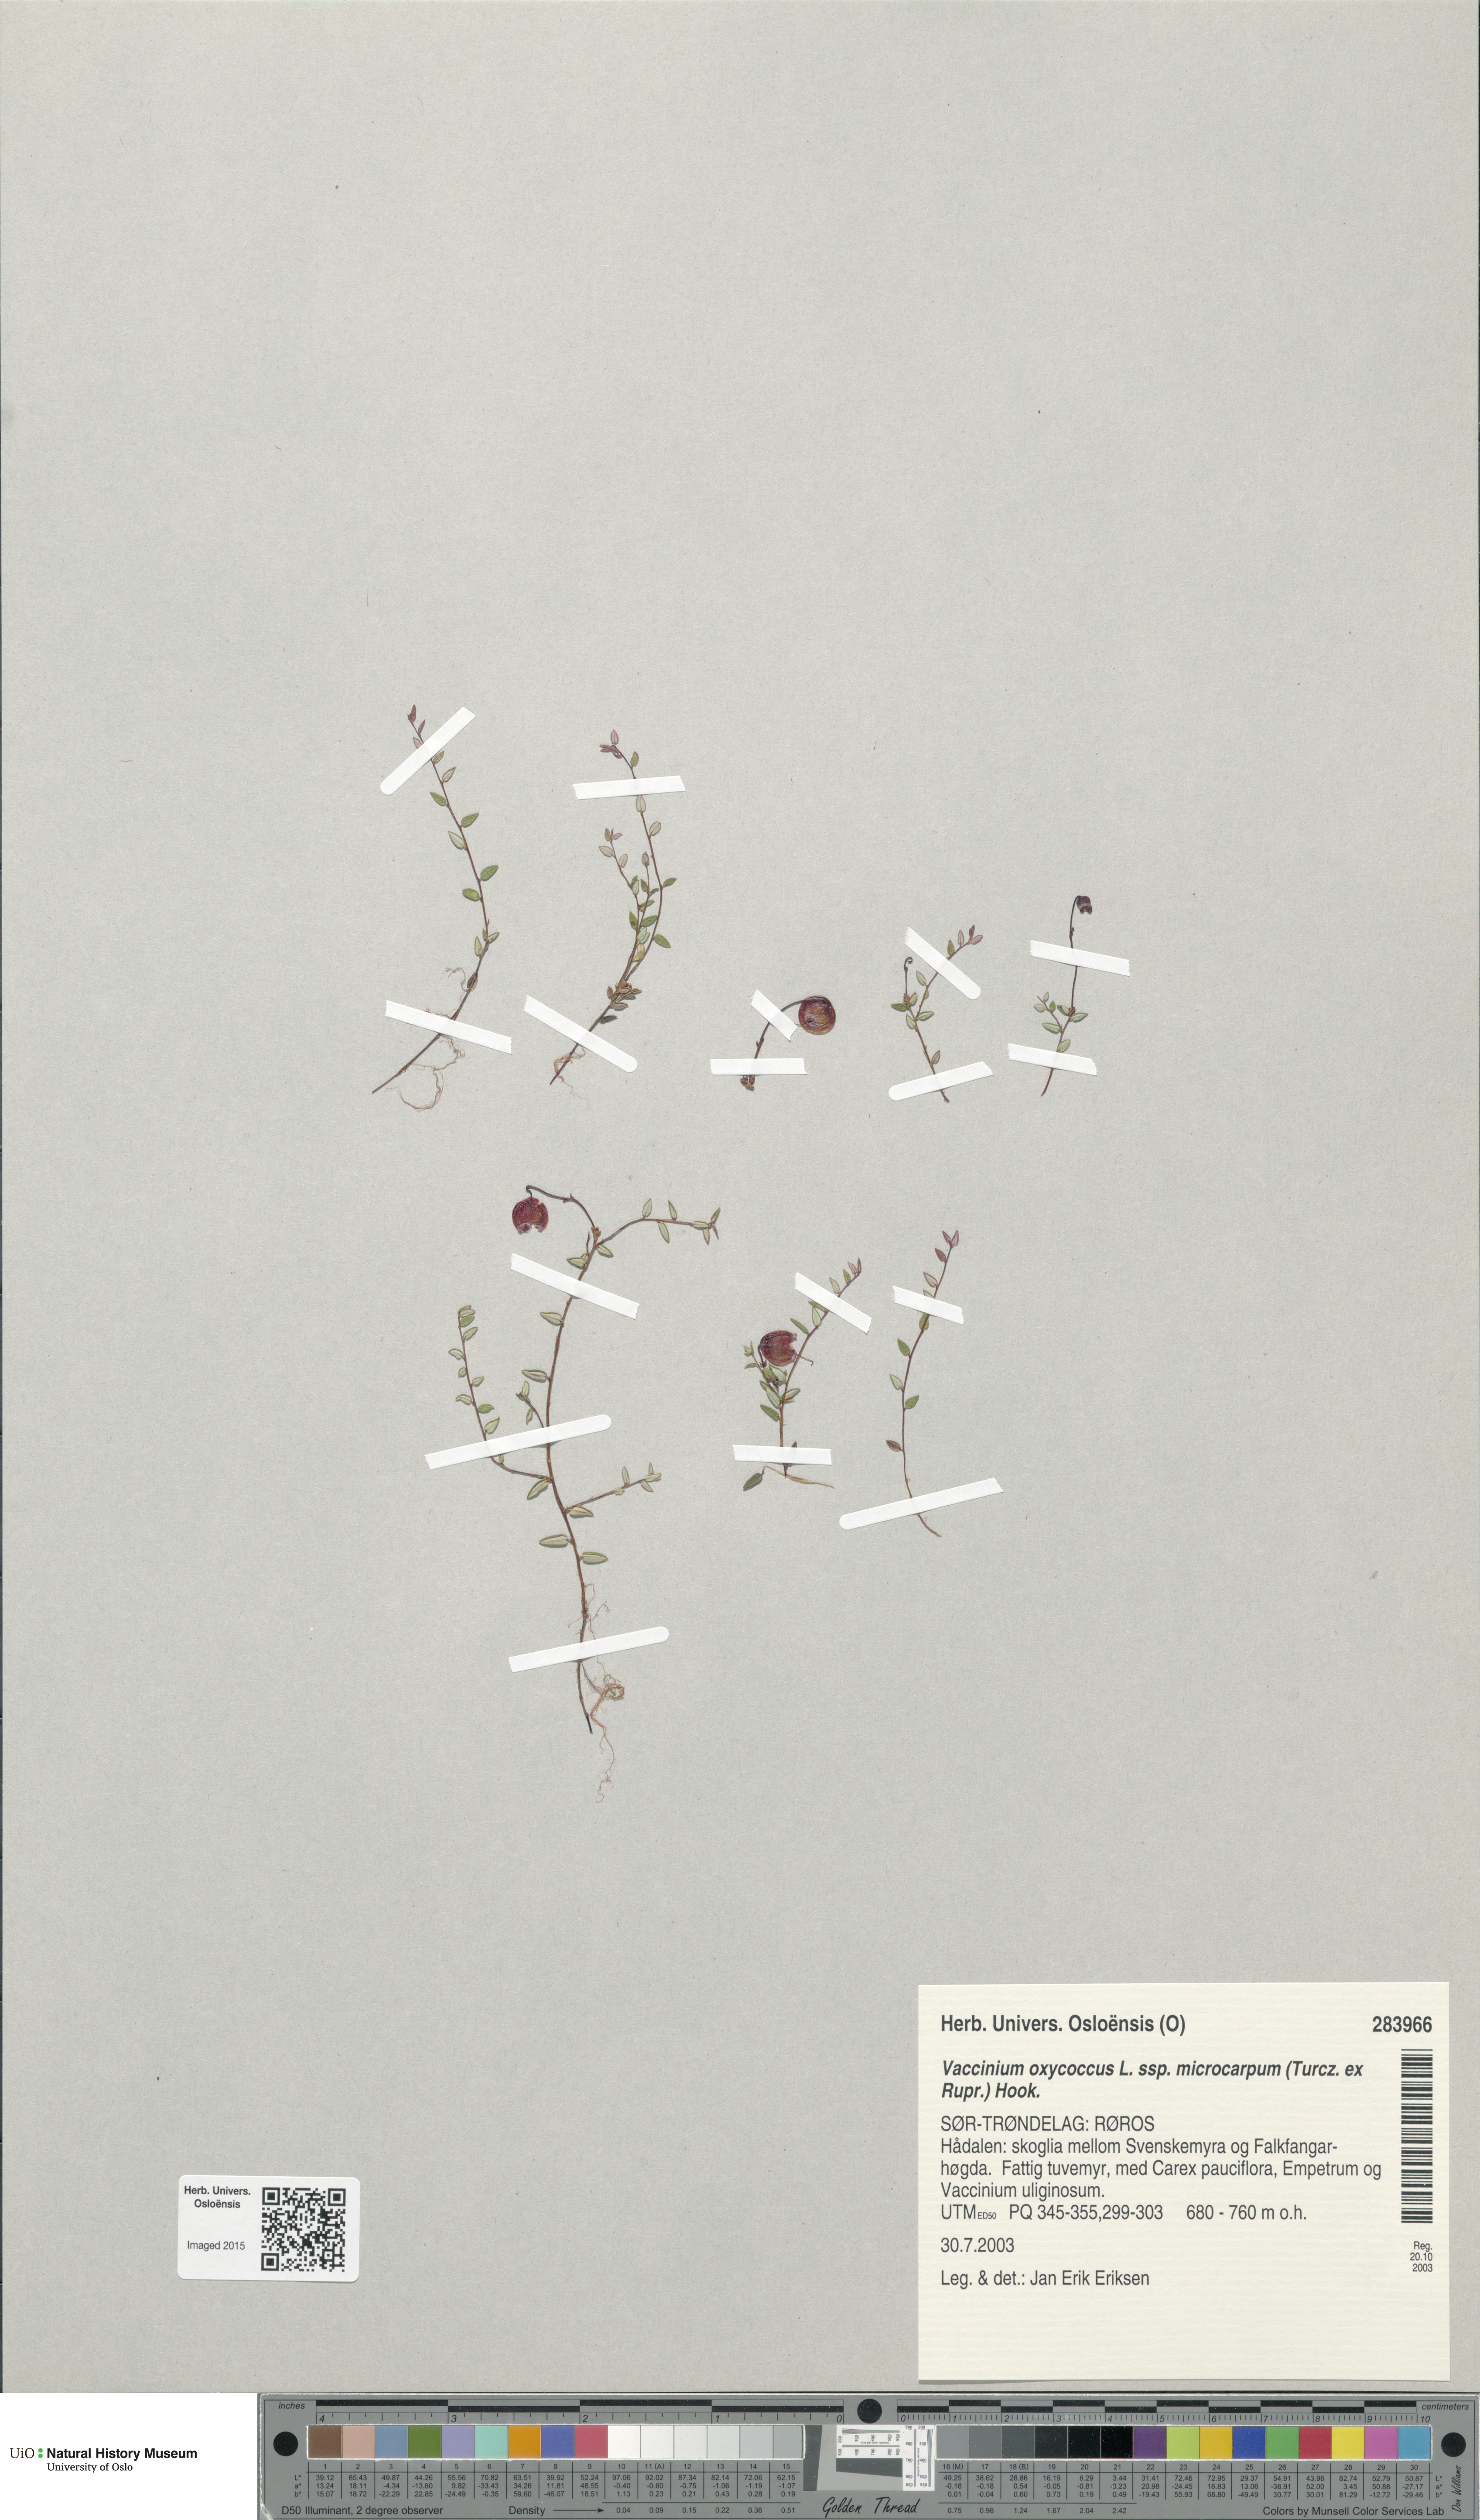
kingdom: Plantae
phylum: Tracheophyta
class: Magnoliopsida
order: Ericales
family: Ericaceae
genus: Vaccinium
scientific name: Vaccinium microcarpum
